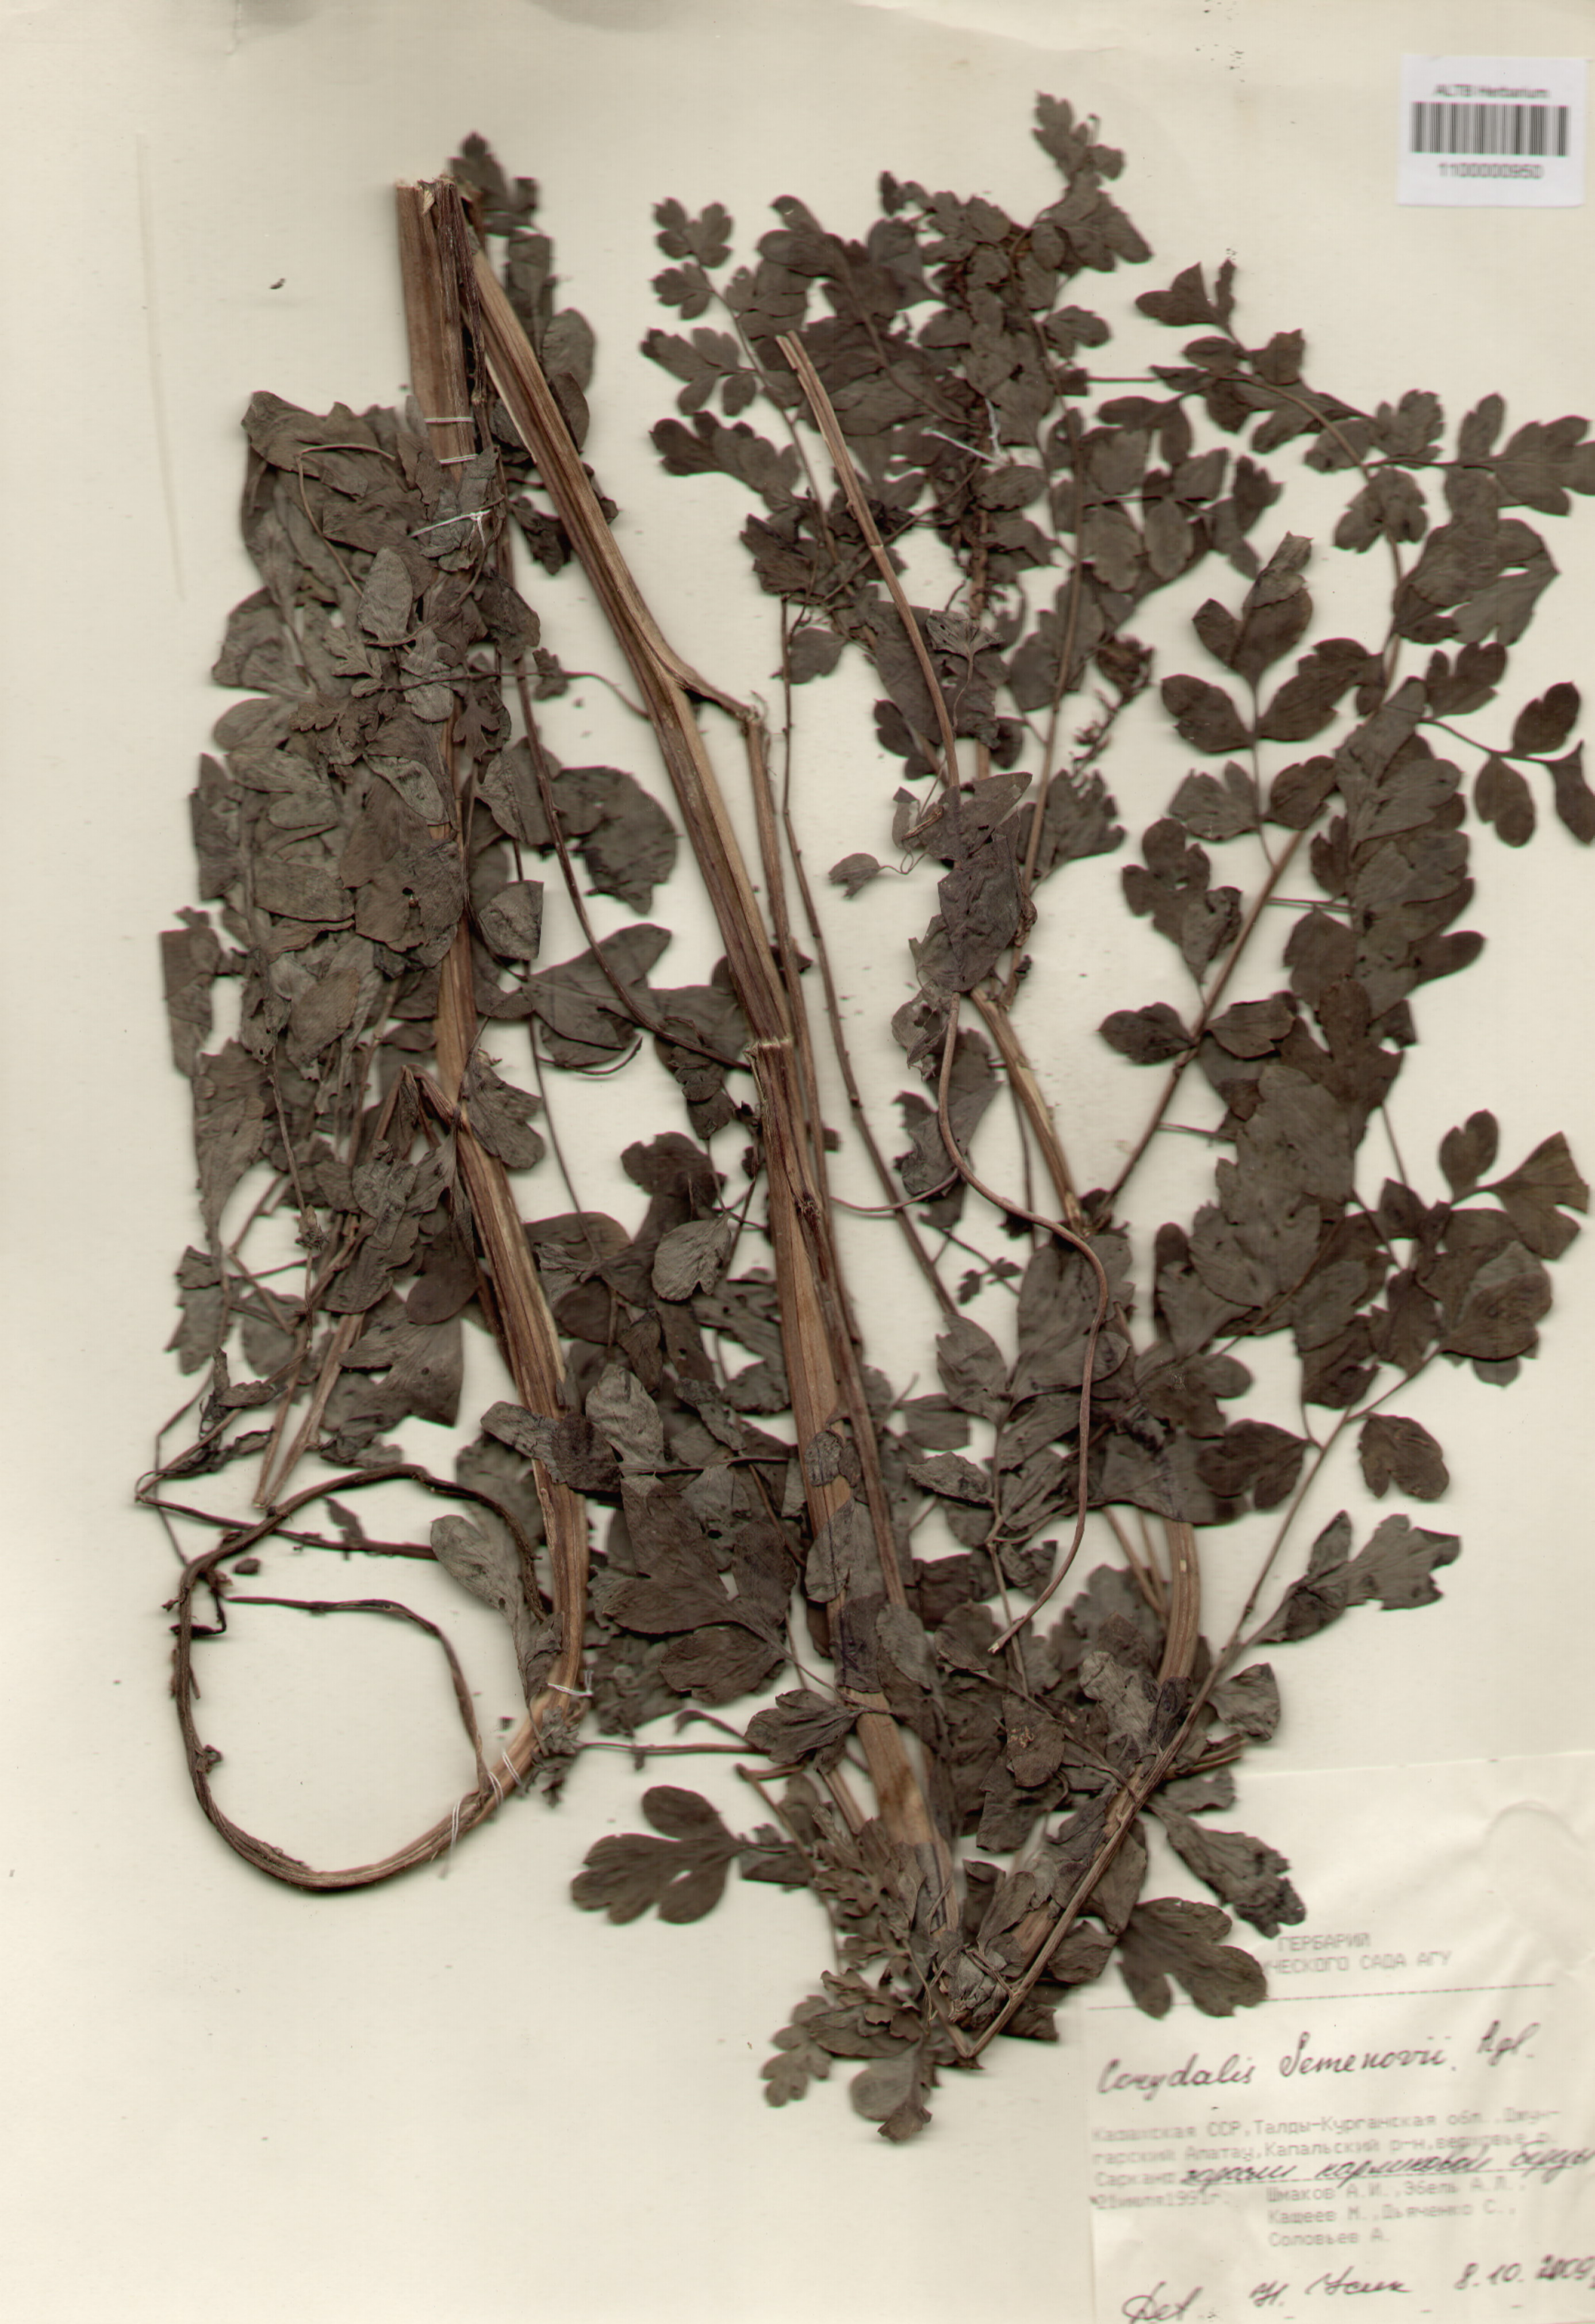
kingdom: Plantae
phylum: Tracheophyta
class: Magnoliopsida
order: Ranunculales
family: Papaveraceae
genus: Corydalis
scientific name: Corydalis
